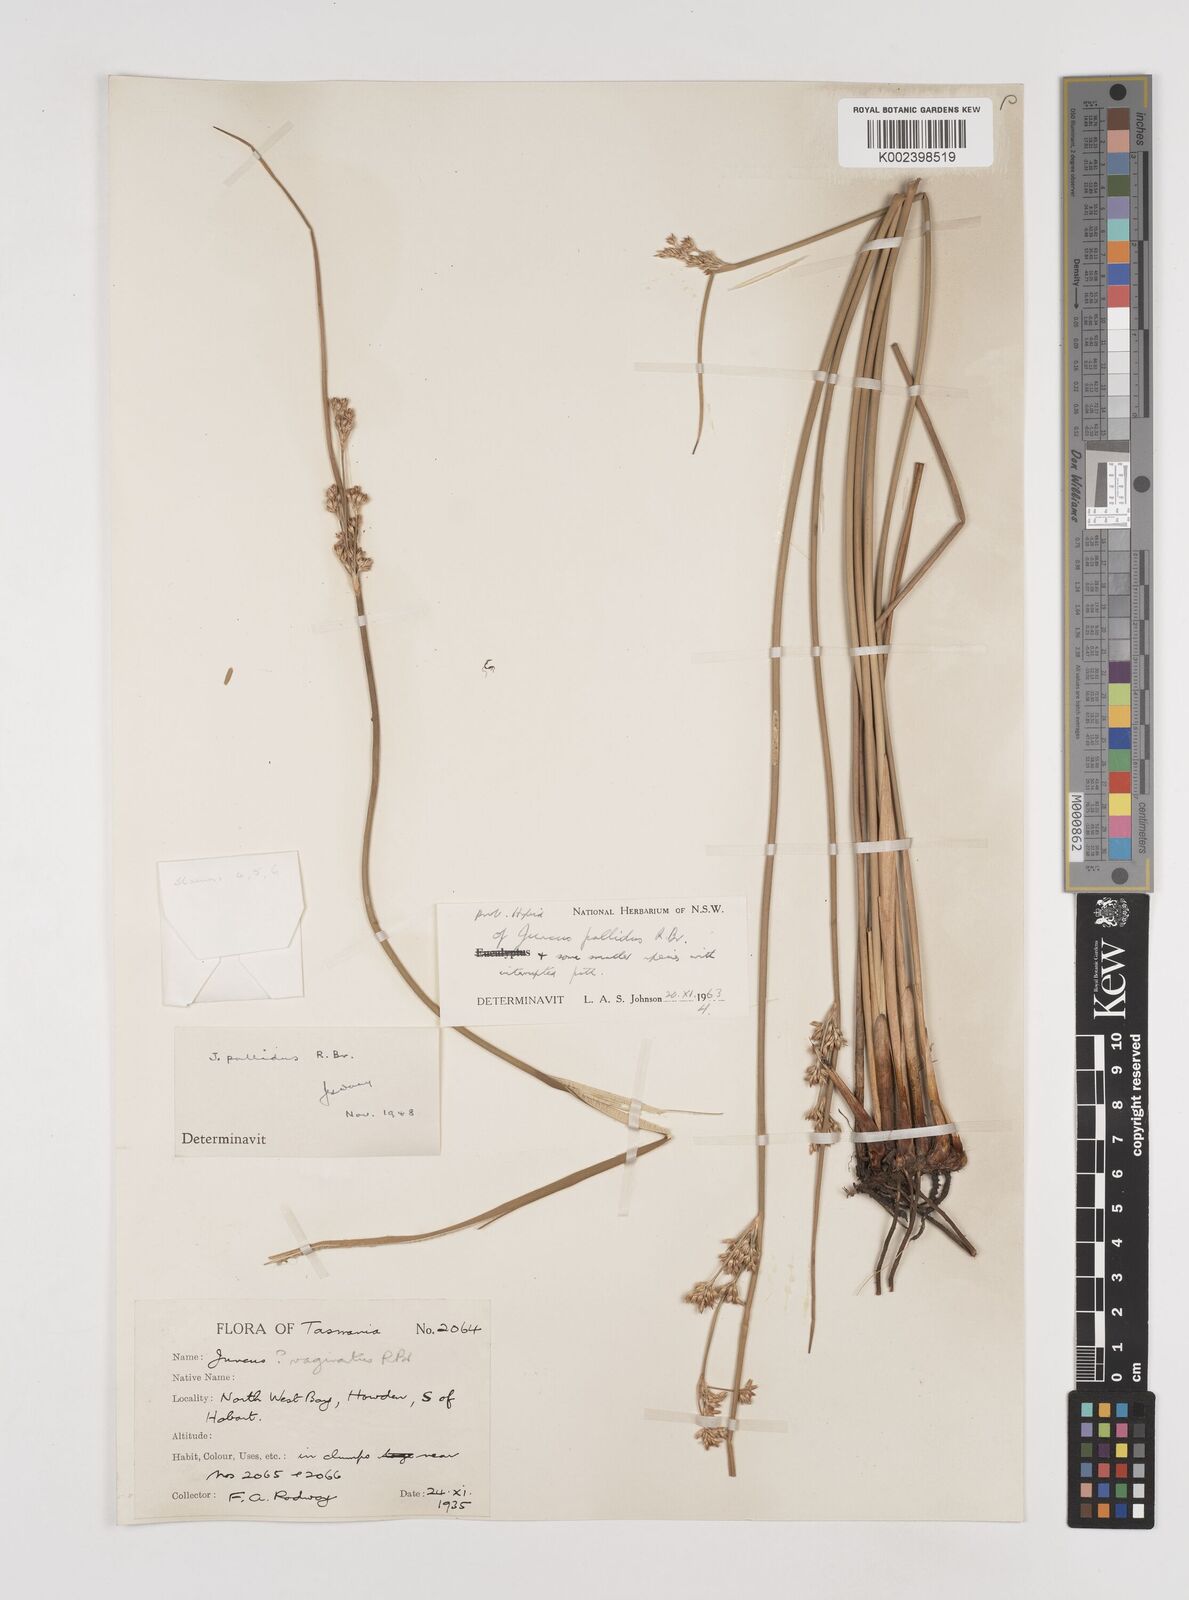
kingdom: Plantae
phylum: Tracheophyta
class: Liliopsida
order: Poales
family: Juncaceae
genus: Juncus
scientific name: Juncus pallidus
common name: Great soft-rush
